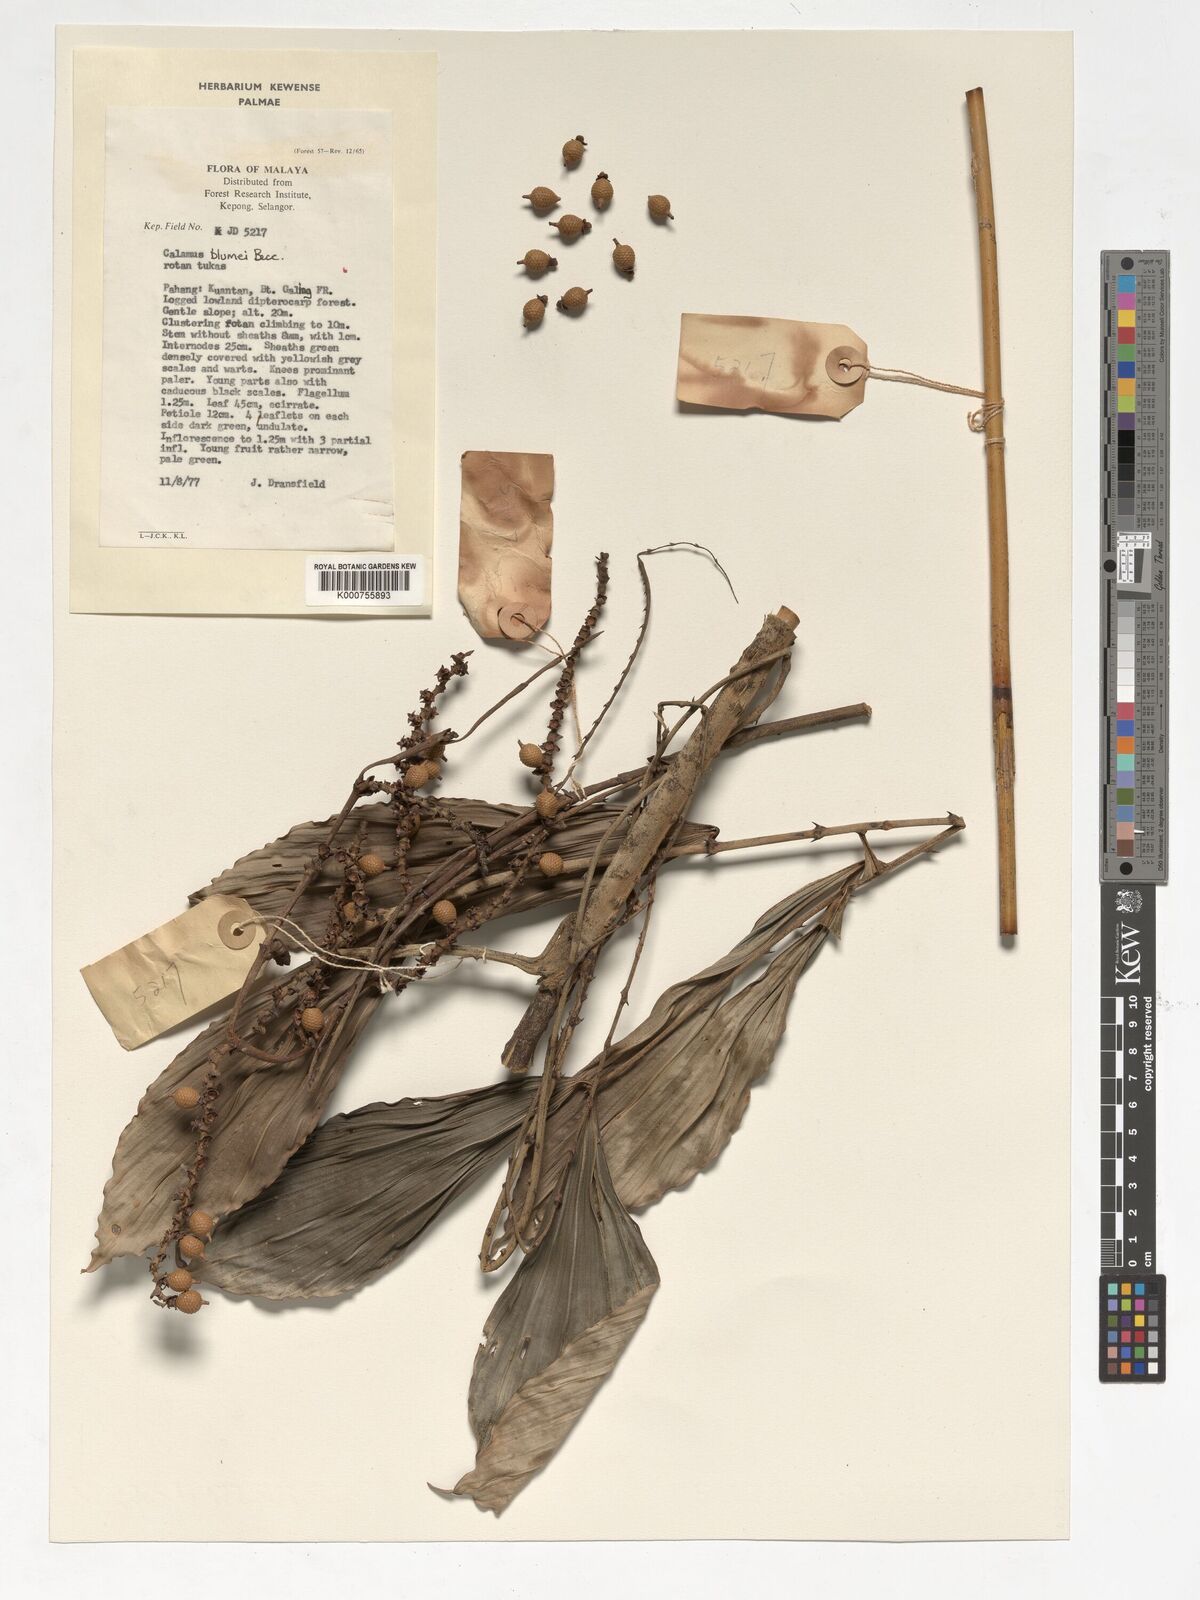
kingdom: Plantae
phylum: Tracheophyta
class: Liliopsida
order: Arecales
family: Arecaceae
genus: Calamus
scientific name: Calamus rhomboideus
